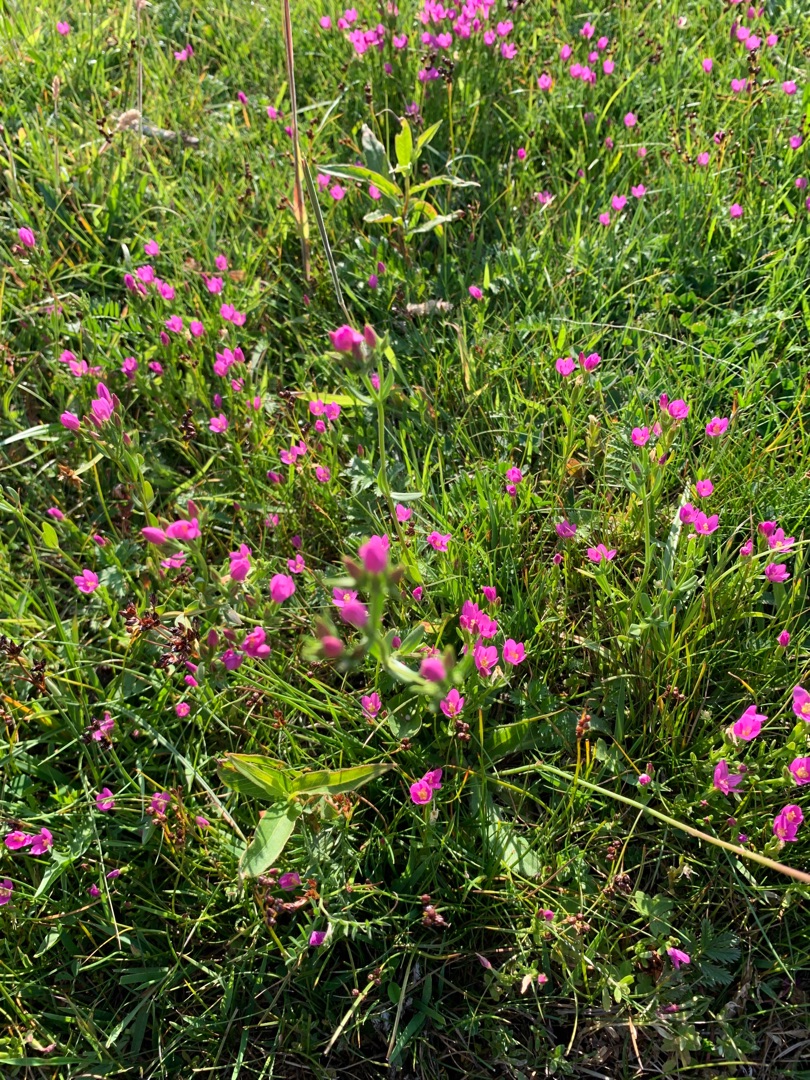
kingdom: Plantae
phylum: Tracheophyta
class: Magnoliopsida
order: Gentianales
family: Gentianaceae
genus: Centaurium
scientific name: Centaurium littorale
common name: Strand-tusindgylden
